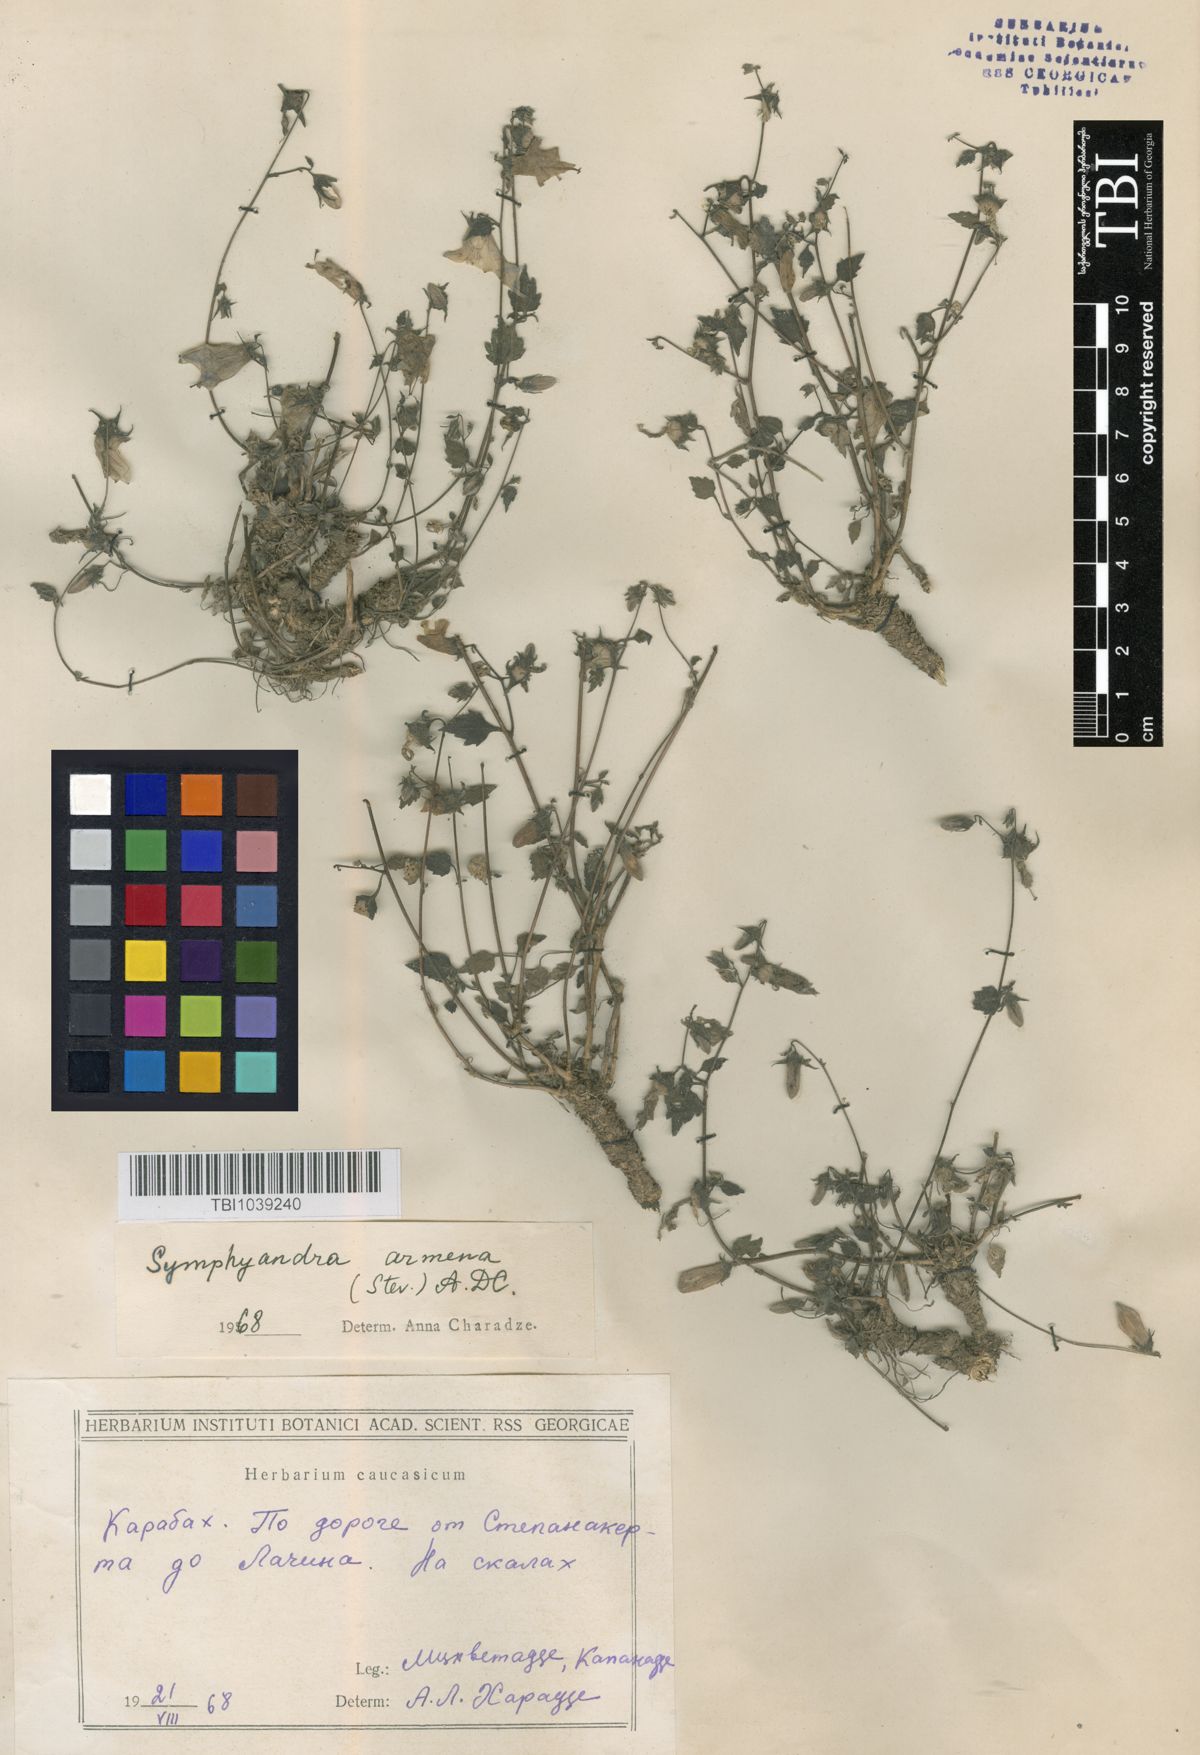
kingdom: Plantae
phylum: Tracheophyta
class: Magnoliopsida
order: Asterales
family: Campanulaceae
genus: Campanula
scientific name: Campanula armena
